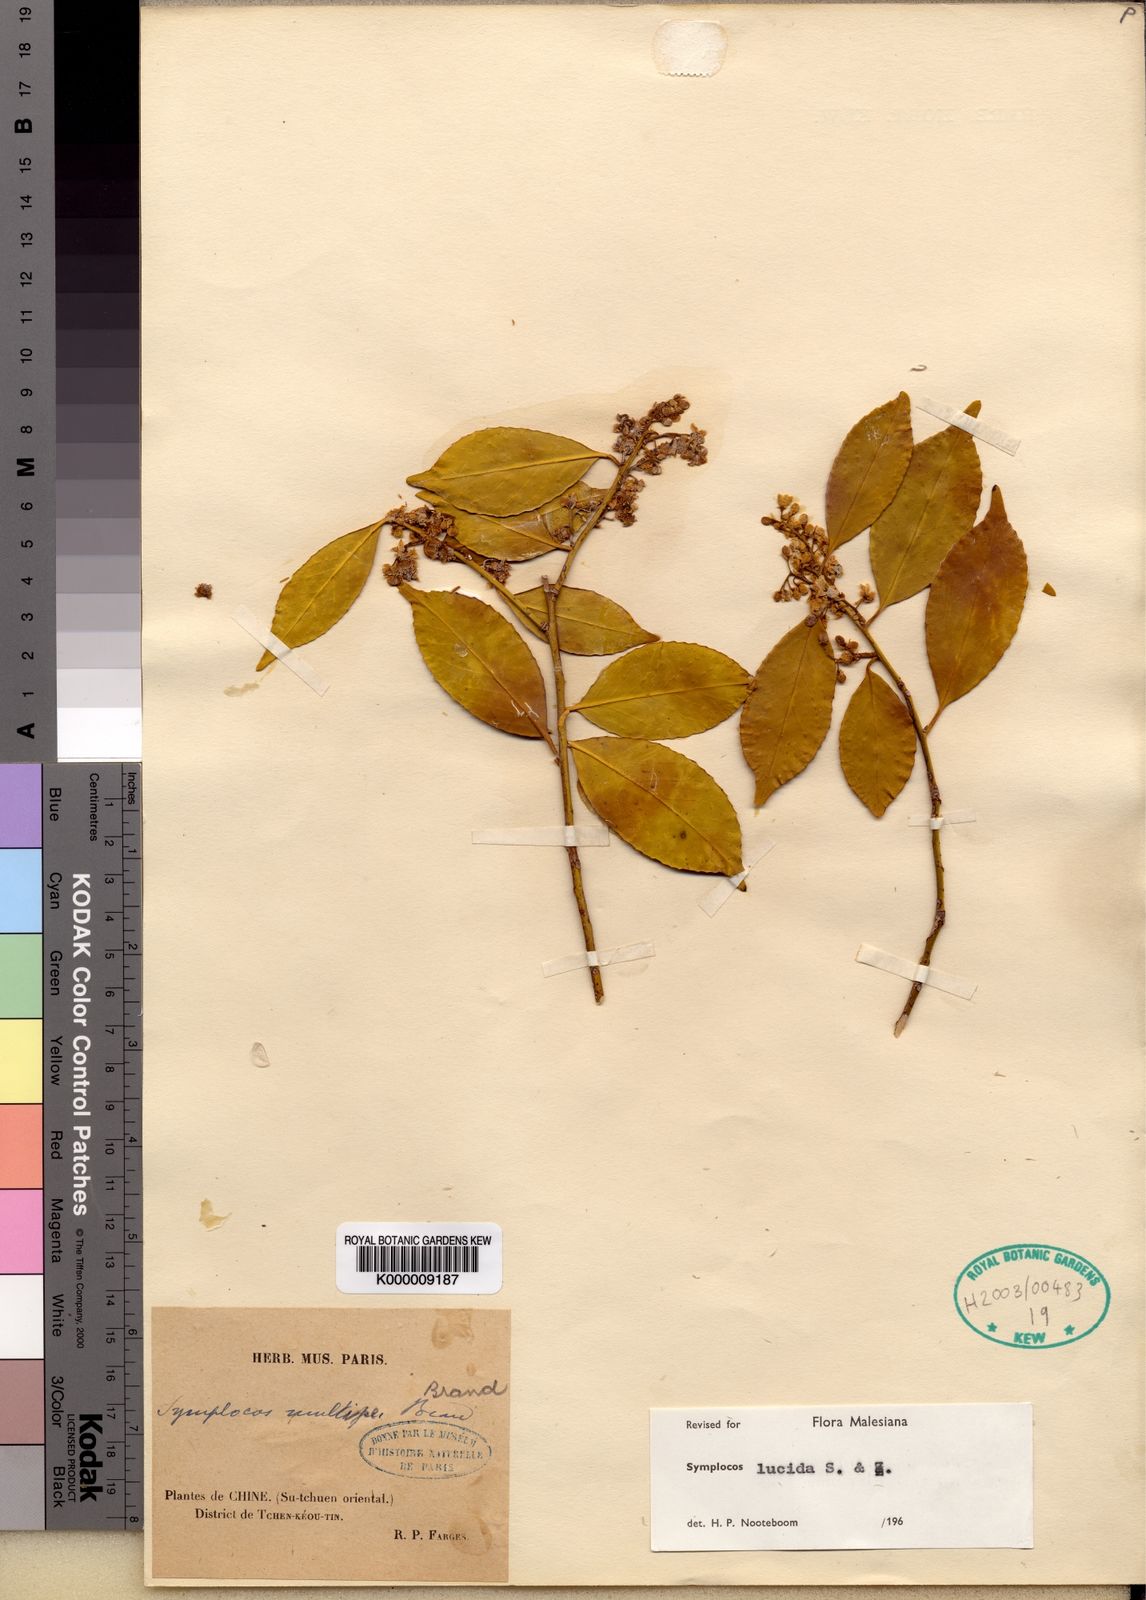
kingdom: Plantae
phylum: Tracheophyta
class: Magnoliopsida
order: Ericales
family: Symplocaceae
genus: Symplocos
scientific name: Symplocos
